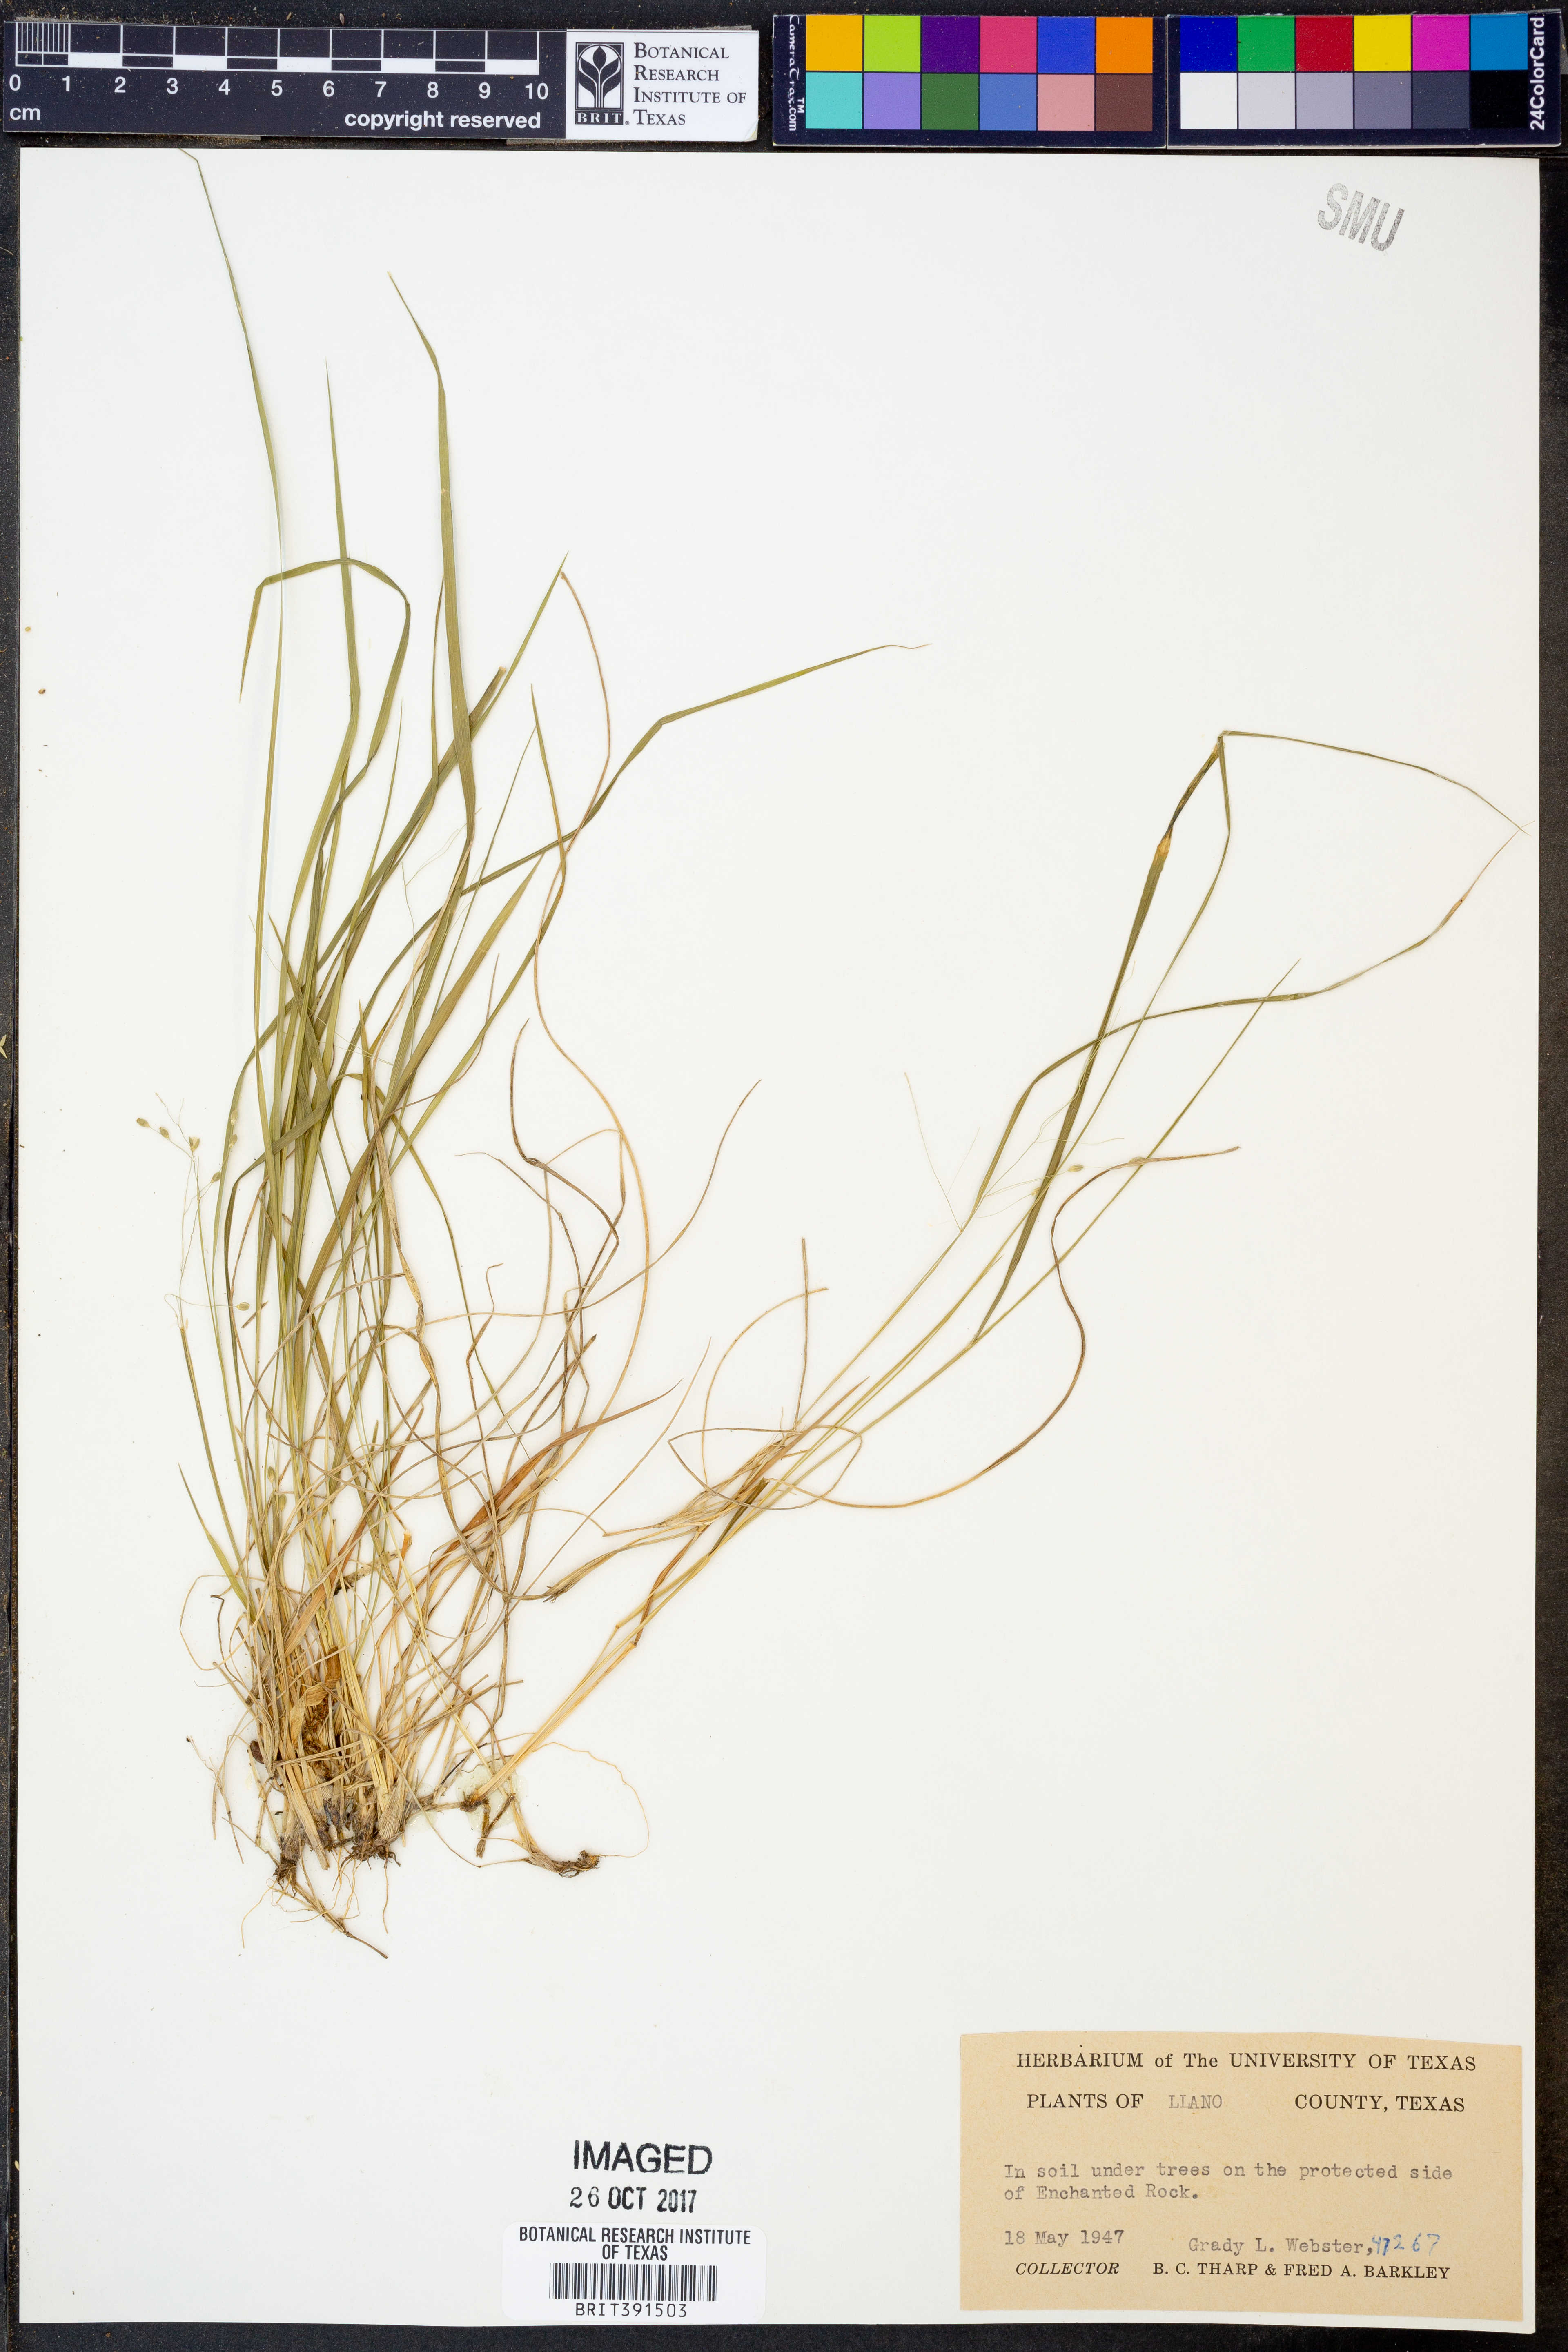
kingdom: Plantae
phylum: Tracheophyta
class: Liliopsida
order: Poales
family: Poaceae
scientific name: Poaceae
